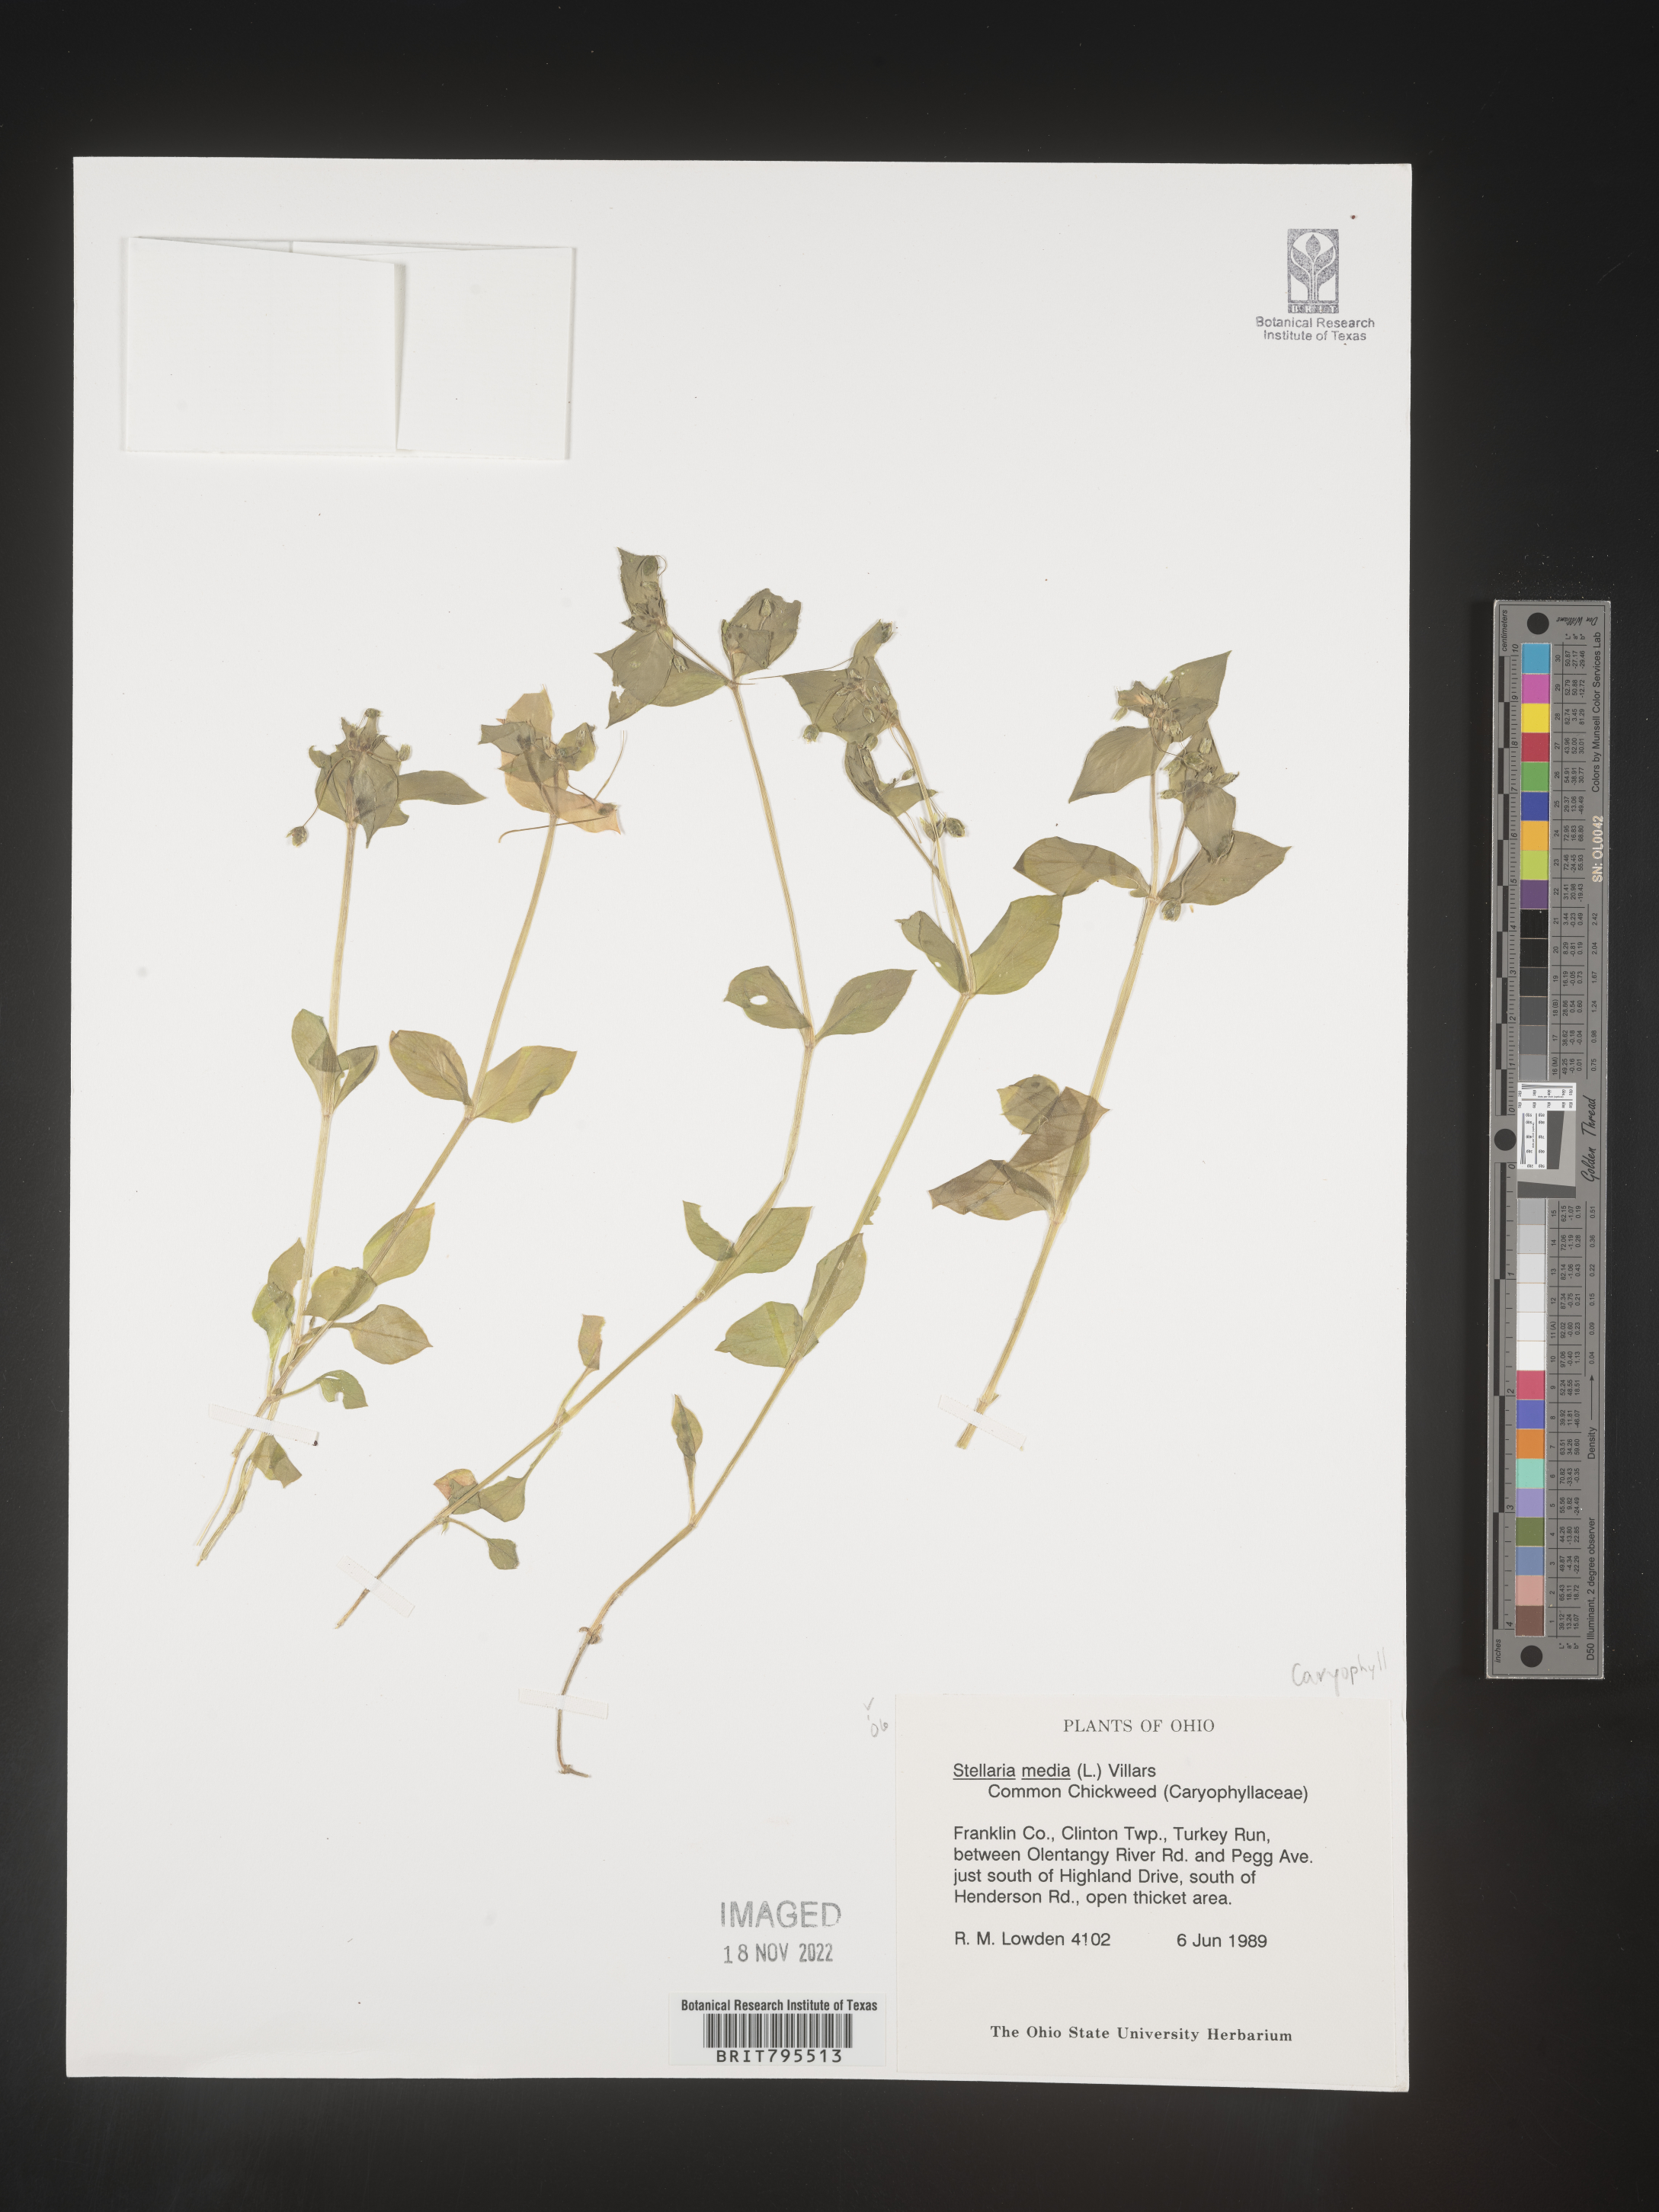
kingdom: Plantae
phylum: Tracheophyta
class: Magnoliopsida
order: Caryophyllales
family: Caryophyllaceae
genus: Stellaria
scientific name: Stellaria media
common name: Common chickweed
